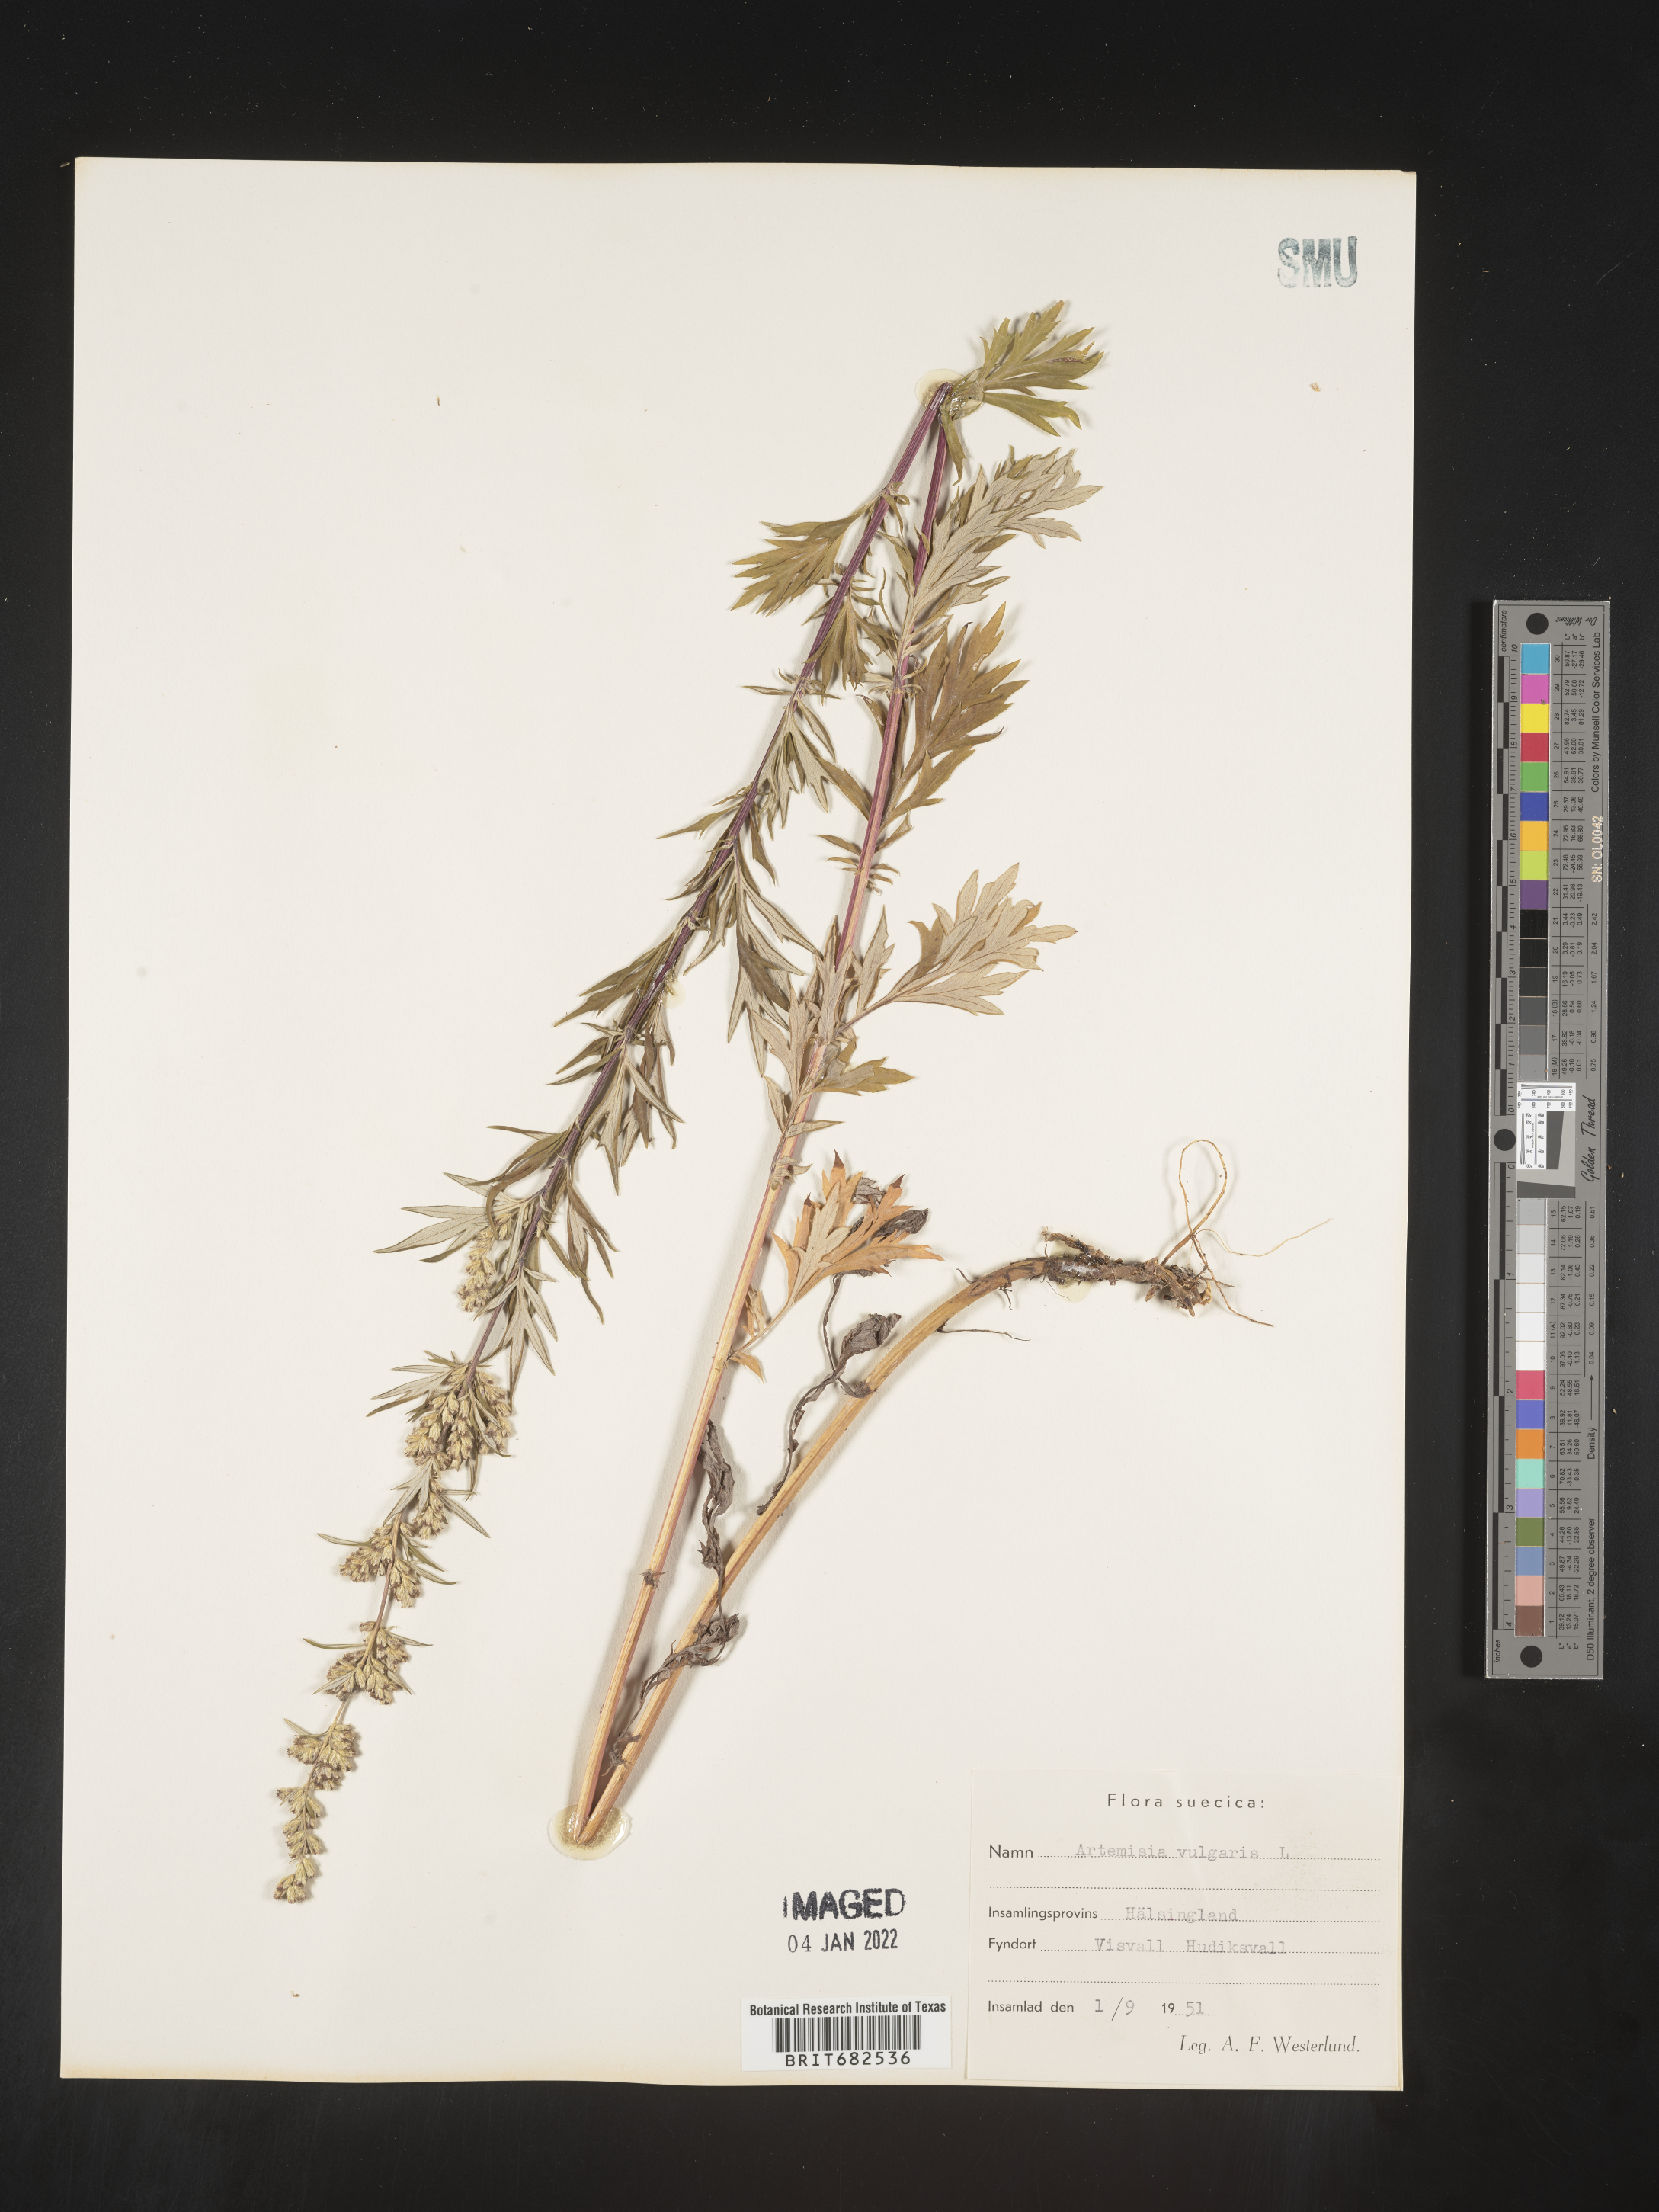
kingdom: Plantae
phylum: Tracheophyta
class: Magnoliopsida
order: Asterales
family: Asteraceae
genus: Artemisia
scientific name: Artemisia
